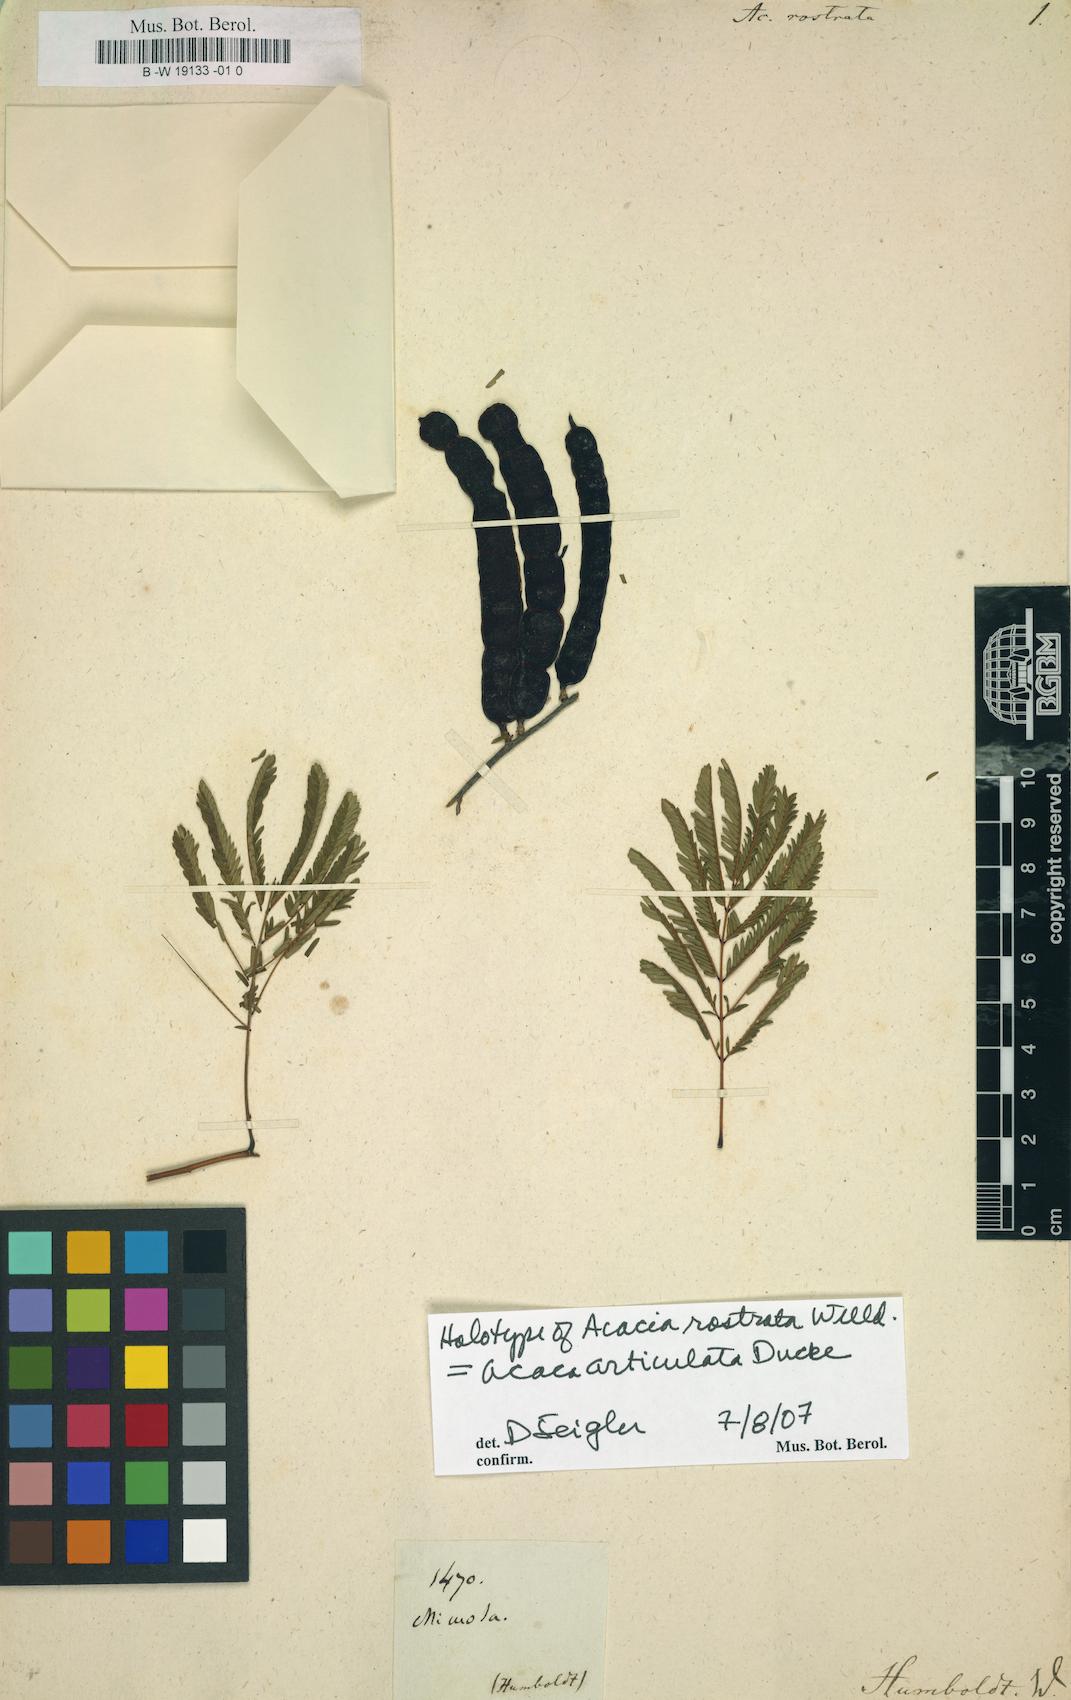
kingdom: Plantae
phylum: Tracheophyta
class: Magnoliopsida
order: Fabales
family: Fabaceae
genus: Senegalia
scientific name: Senegalia rostrata
